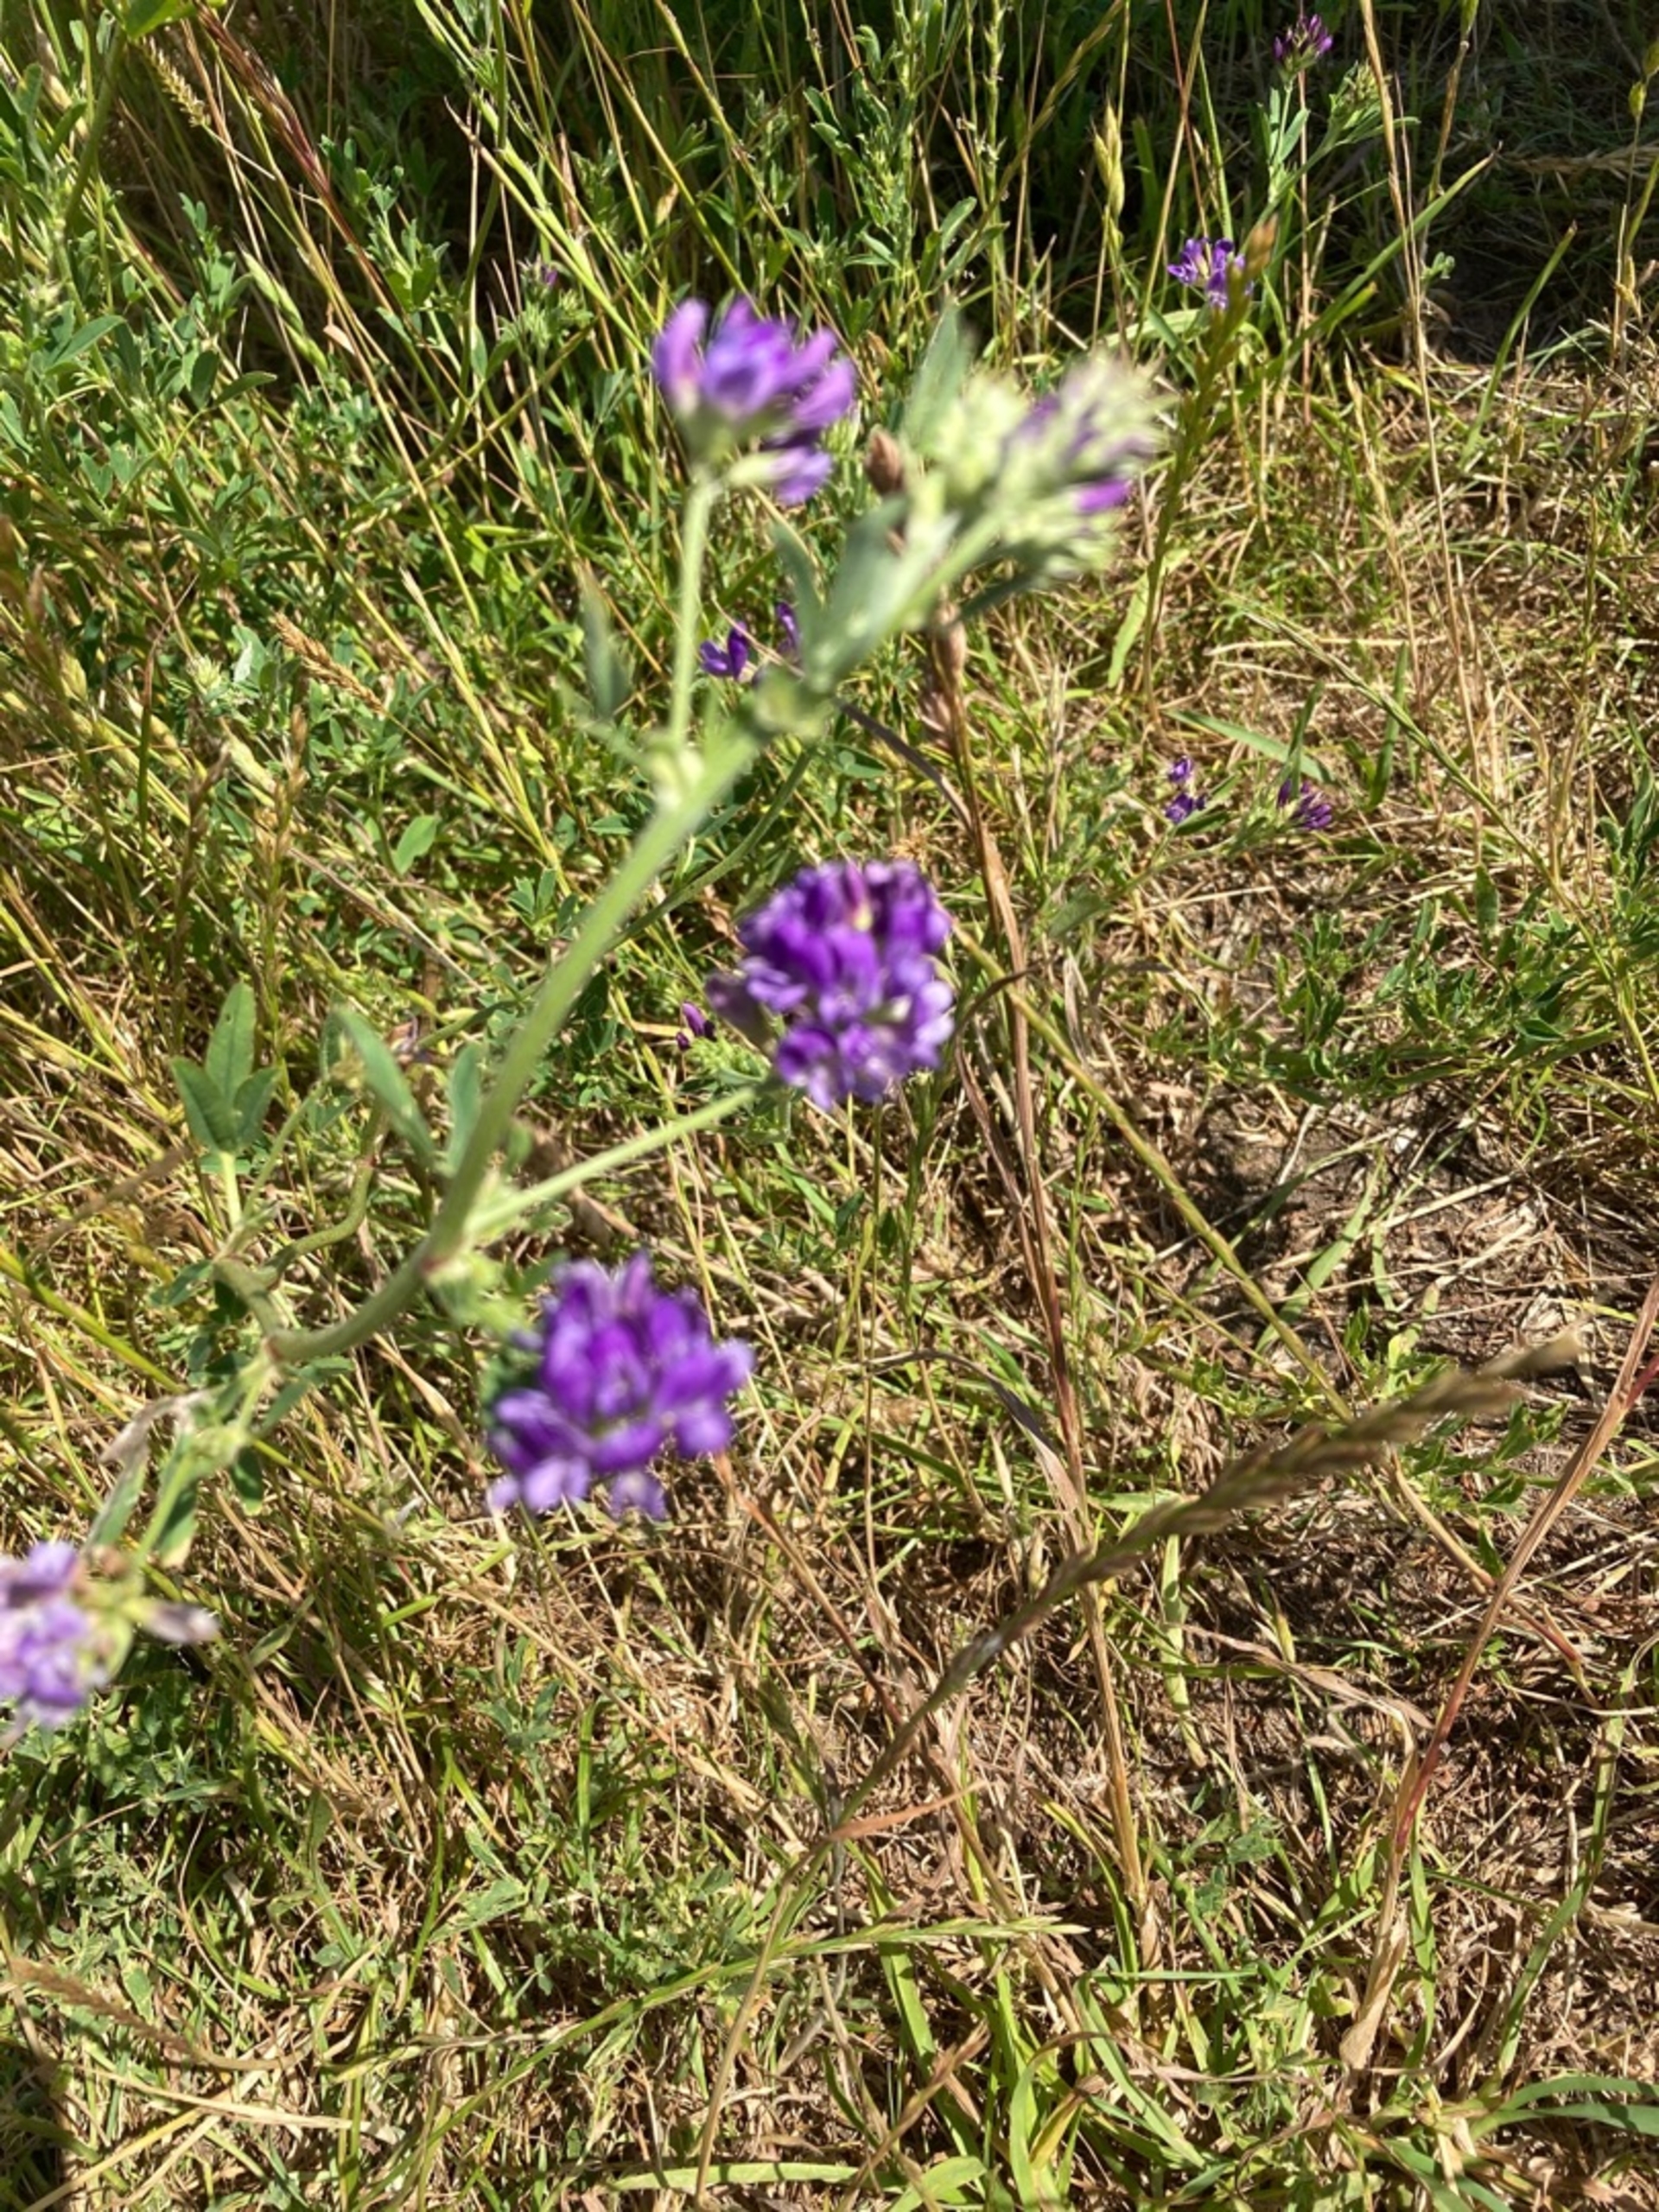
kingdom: Plantae
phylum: Tracheophyta
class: Magnoliopsida
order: Fabales
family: Fabaceae
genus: Medicago
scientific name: Medicago sativa
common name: Lucerne
